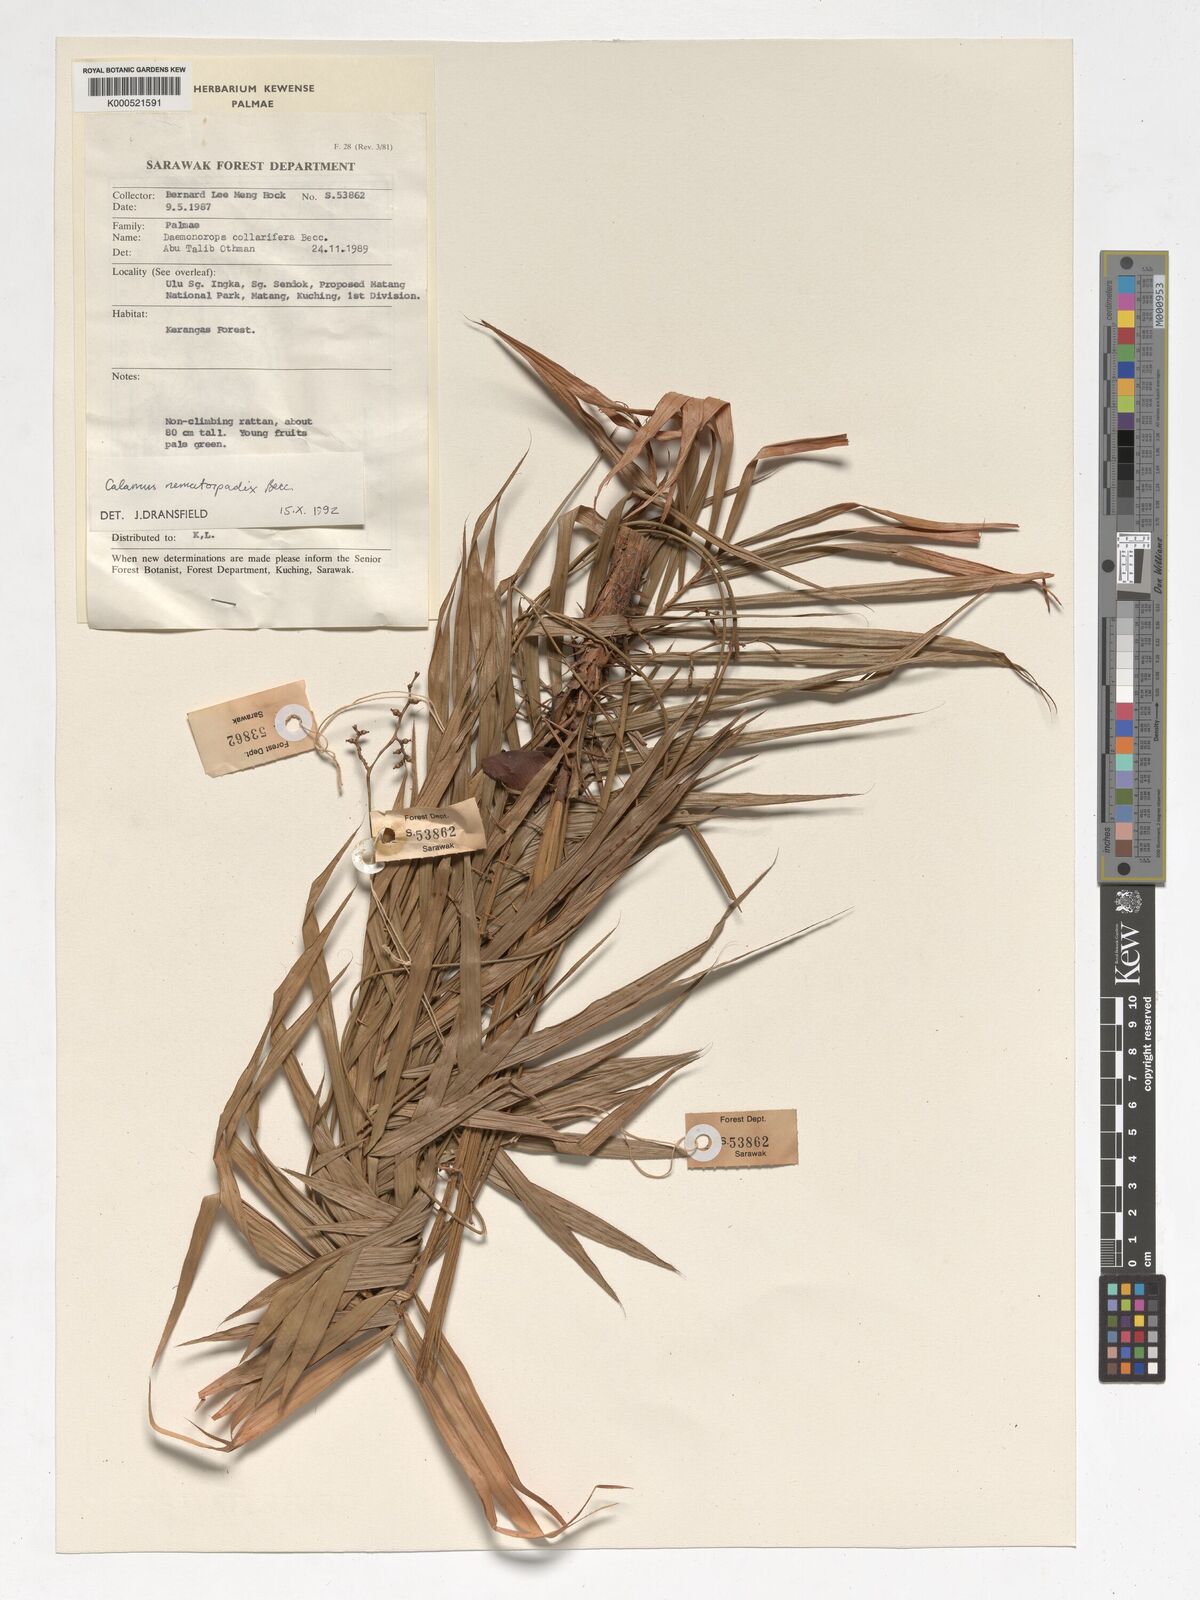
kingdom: Plantae
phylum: Tracheophyta
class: Liliopsida
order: Arecales
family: Arecaceae
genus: Calamus
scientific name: Calamus nematospadix
